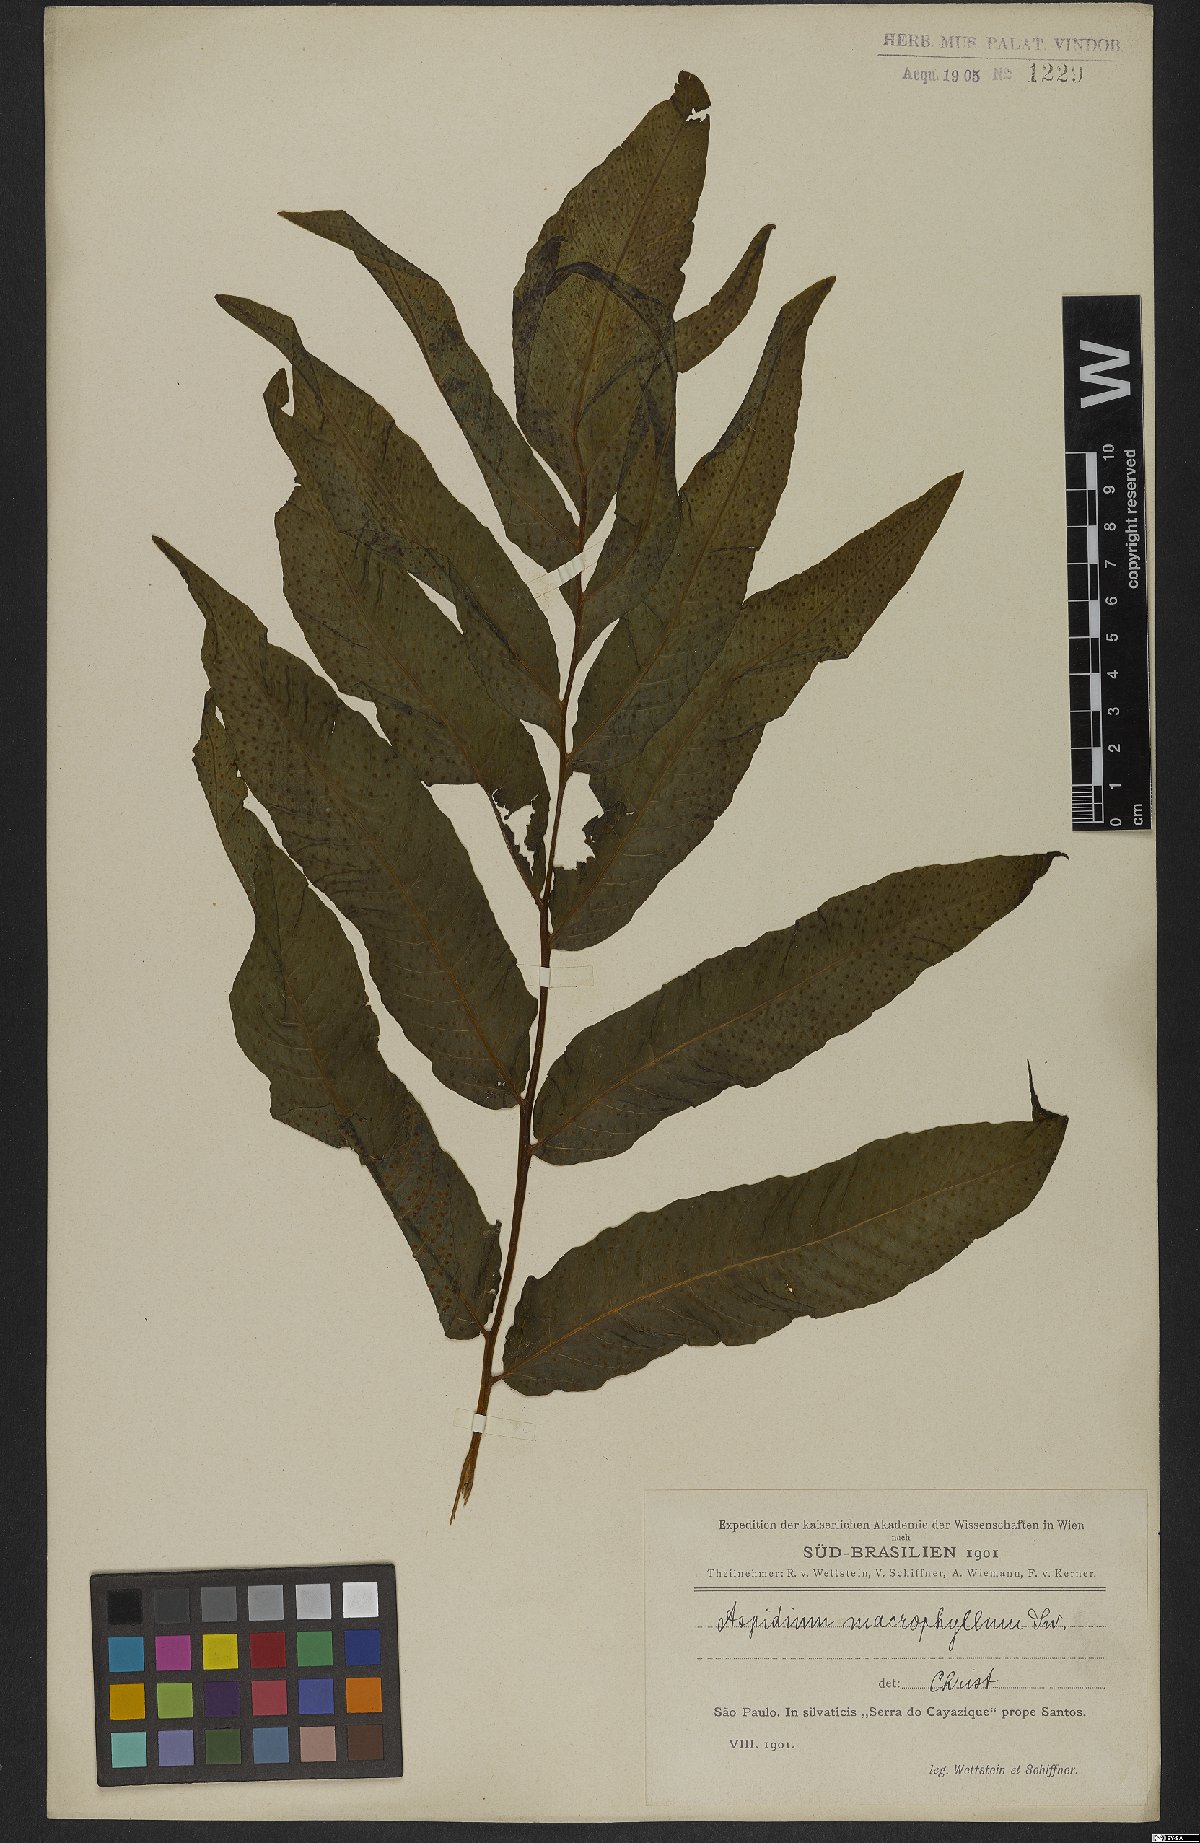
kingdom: Plantae
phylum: Tracheophyta
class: Polypodiopsida
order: Polypodiales
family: Tectariaceae
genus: Tectaria
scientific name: Tectaria incisa
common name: Incised halberd fern
